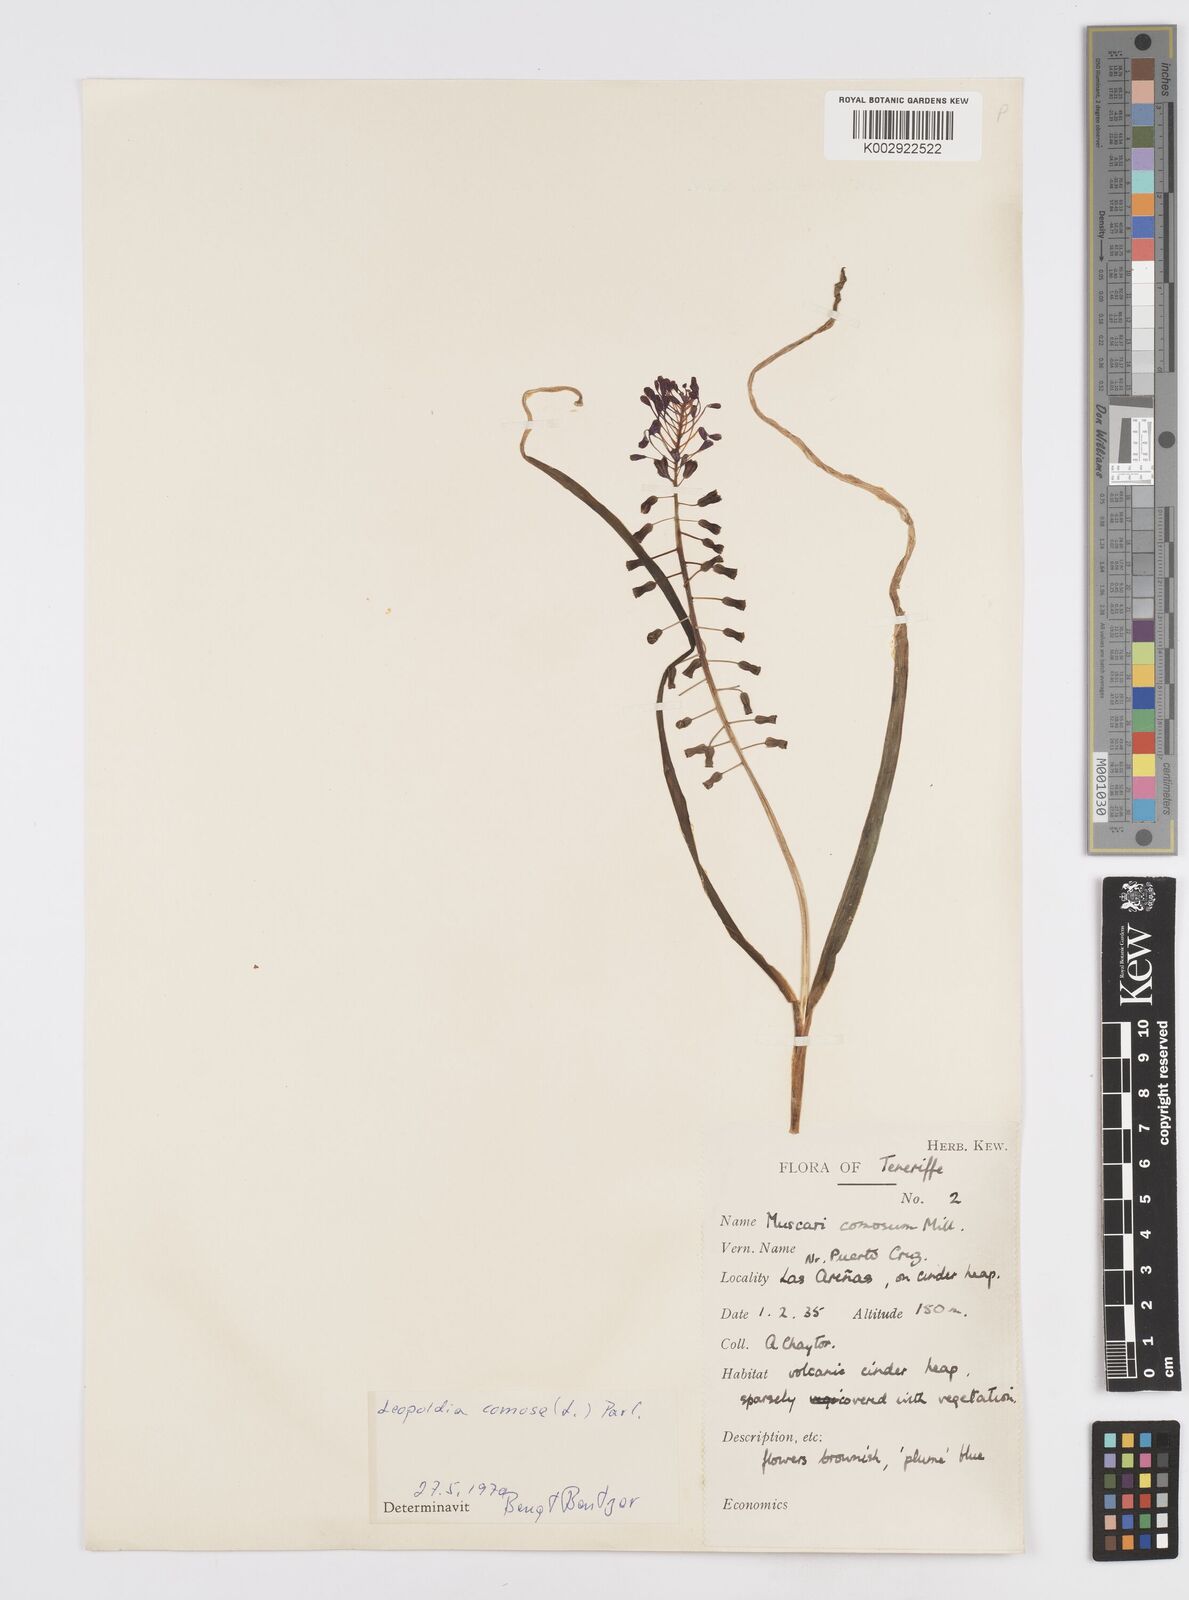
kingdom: Plantae
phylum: Tracheophyta
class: Liliopsida
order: Asparagales
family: Asparagaceae
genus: Muscari
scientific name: Muscari comosum
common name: Tassel hyacinth
